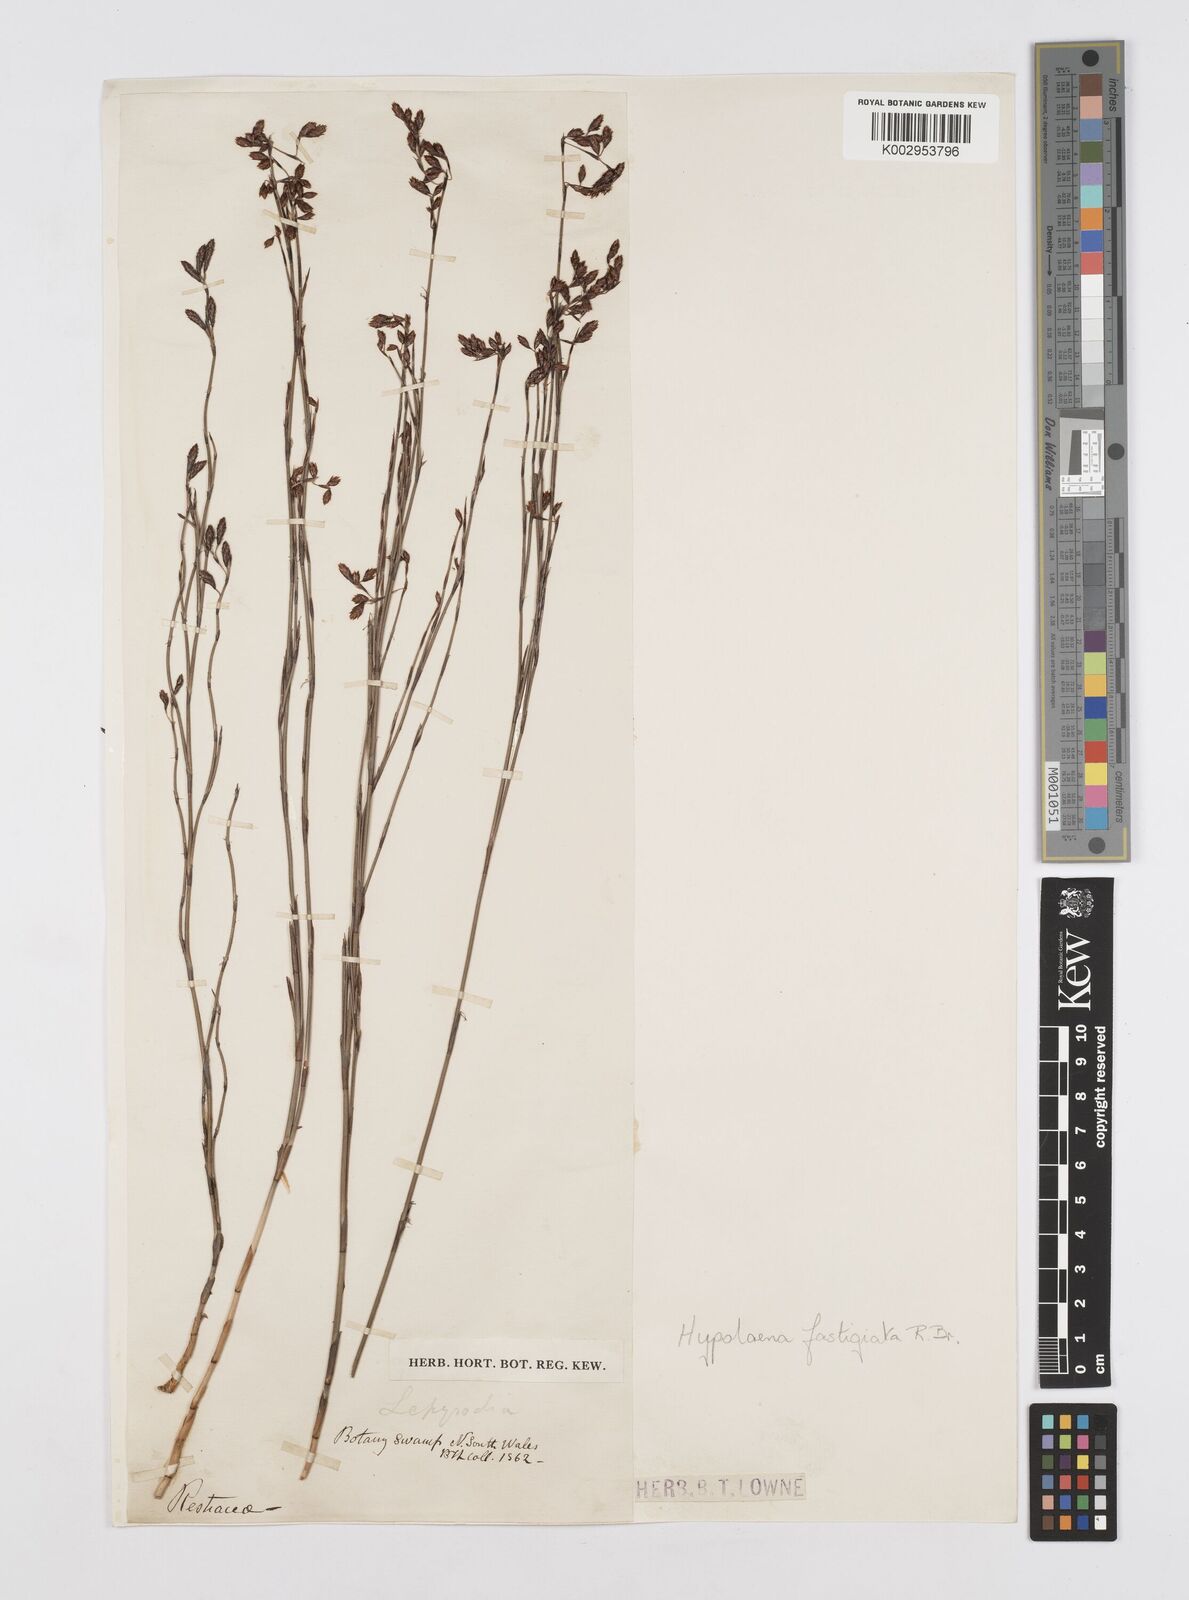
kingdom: Plantae
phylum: Tracheophyta
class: Liliopsida
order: Poales
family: Restionaceae
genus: Hypolaena
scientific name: Hypolaena fastigiata
